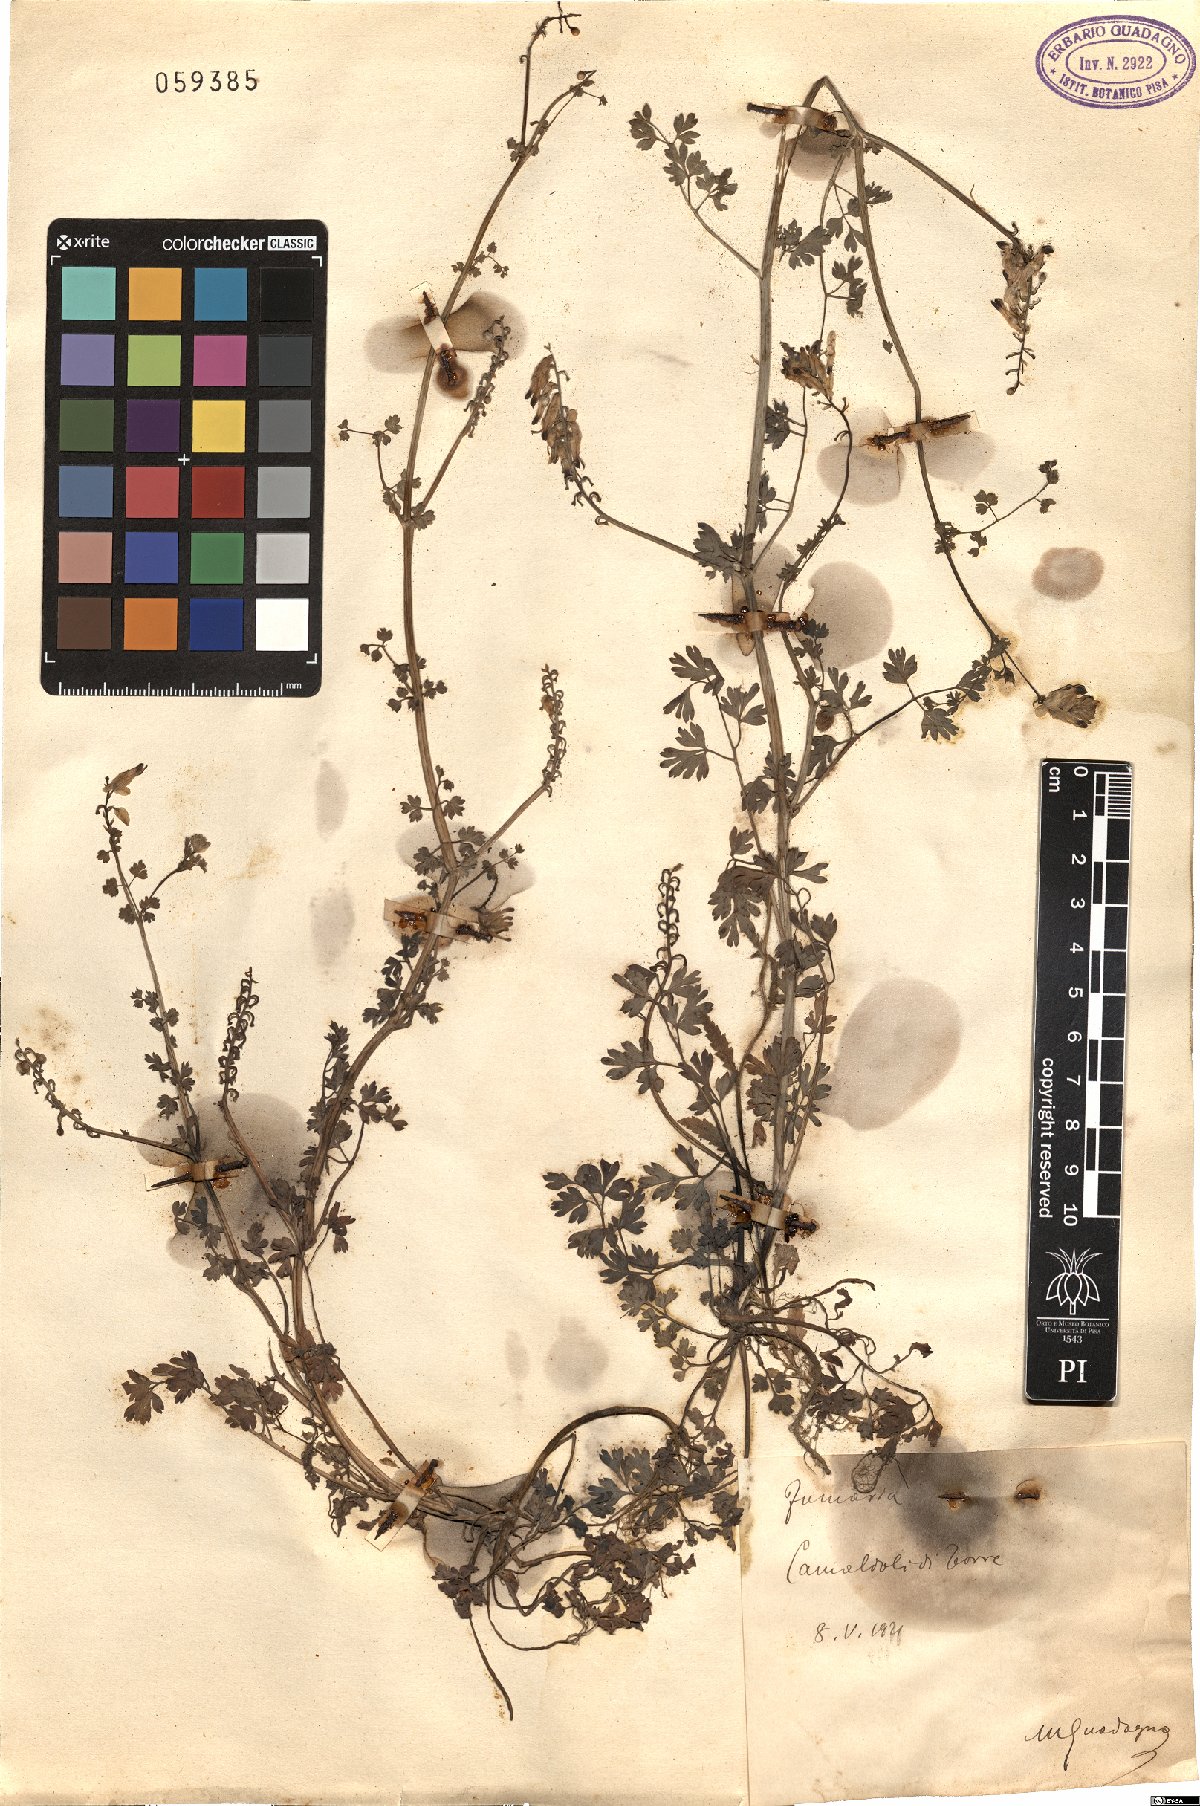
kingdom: Plantae
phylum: Tracheophyta
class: Magnoliopsida
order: Ranunculales
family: Papaveraceae
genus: Fumaria
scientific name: Fumaria
